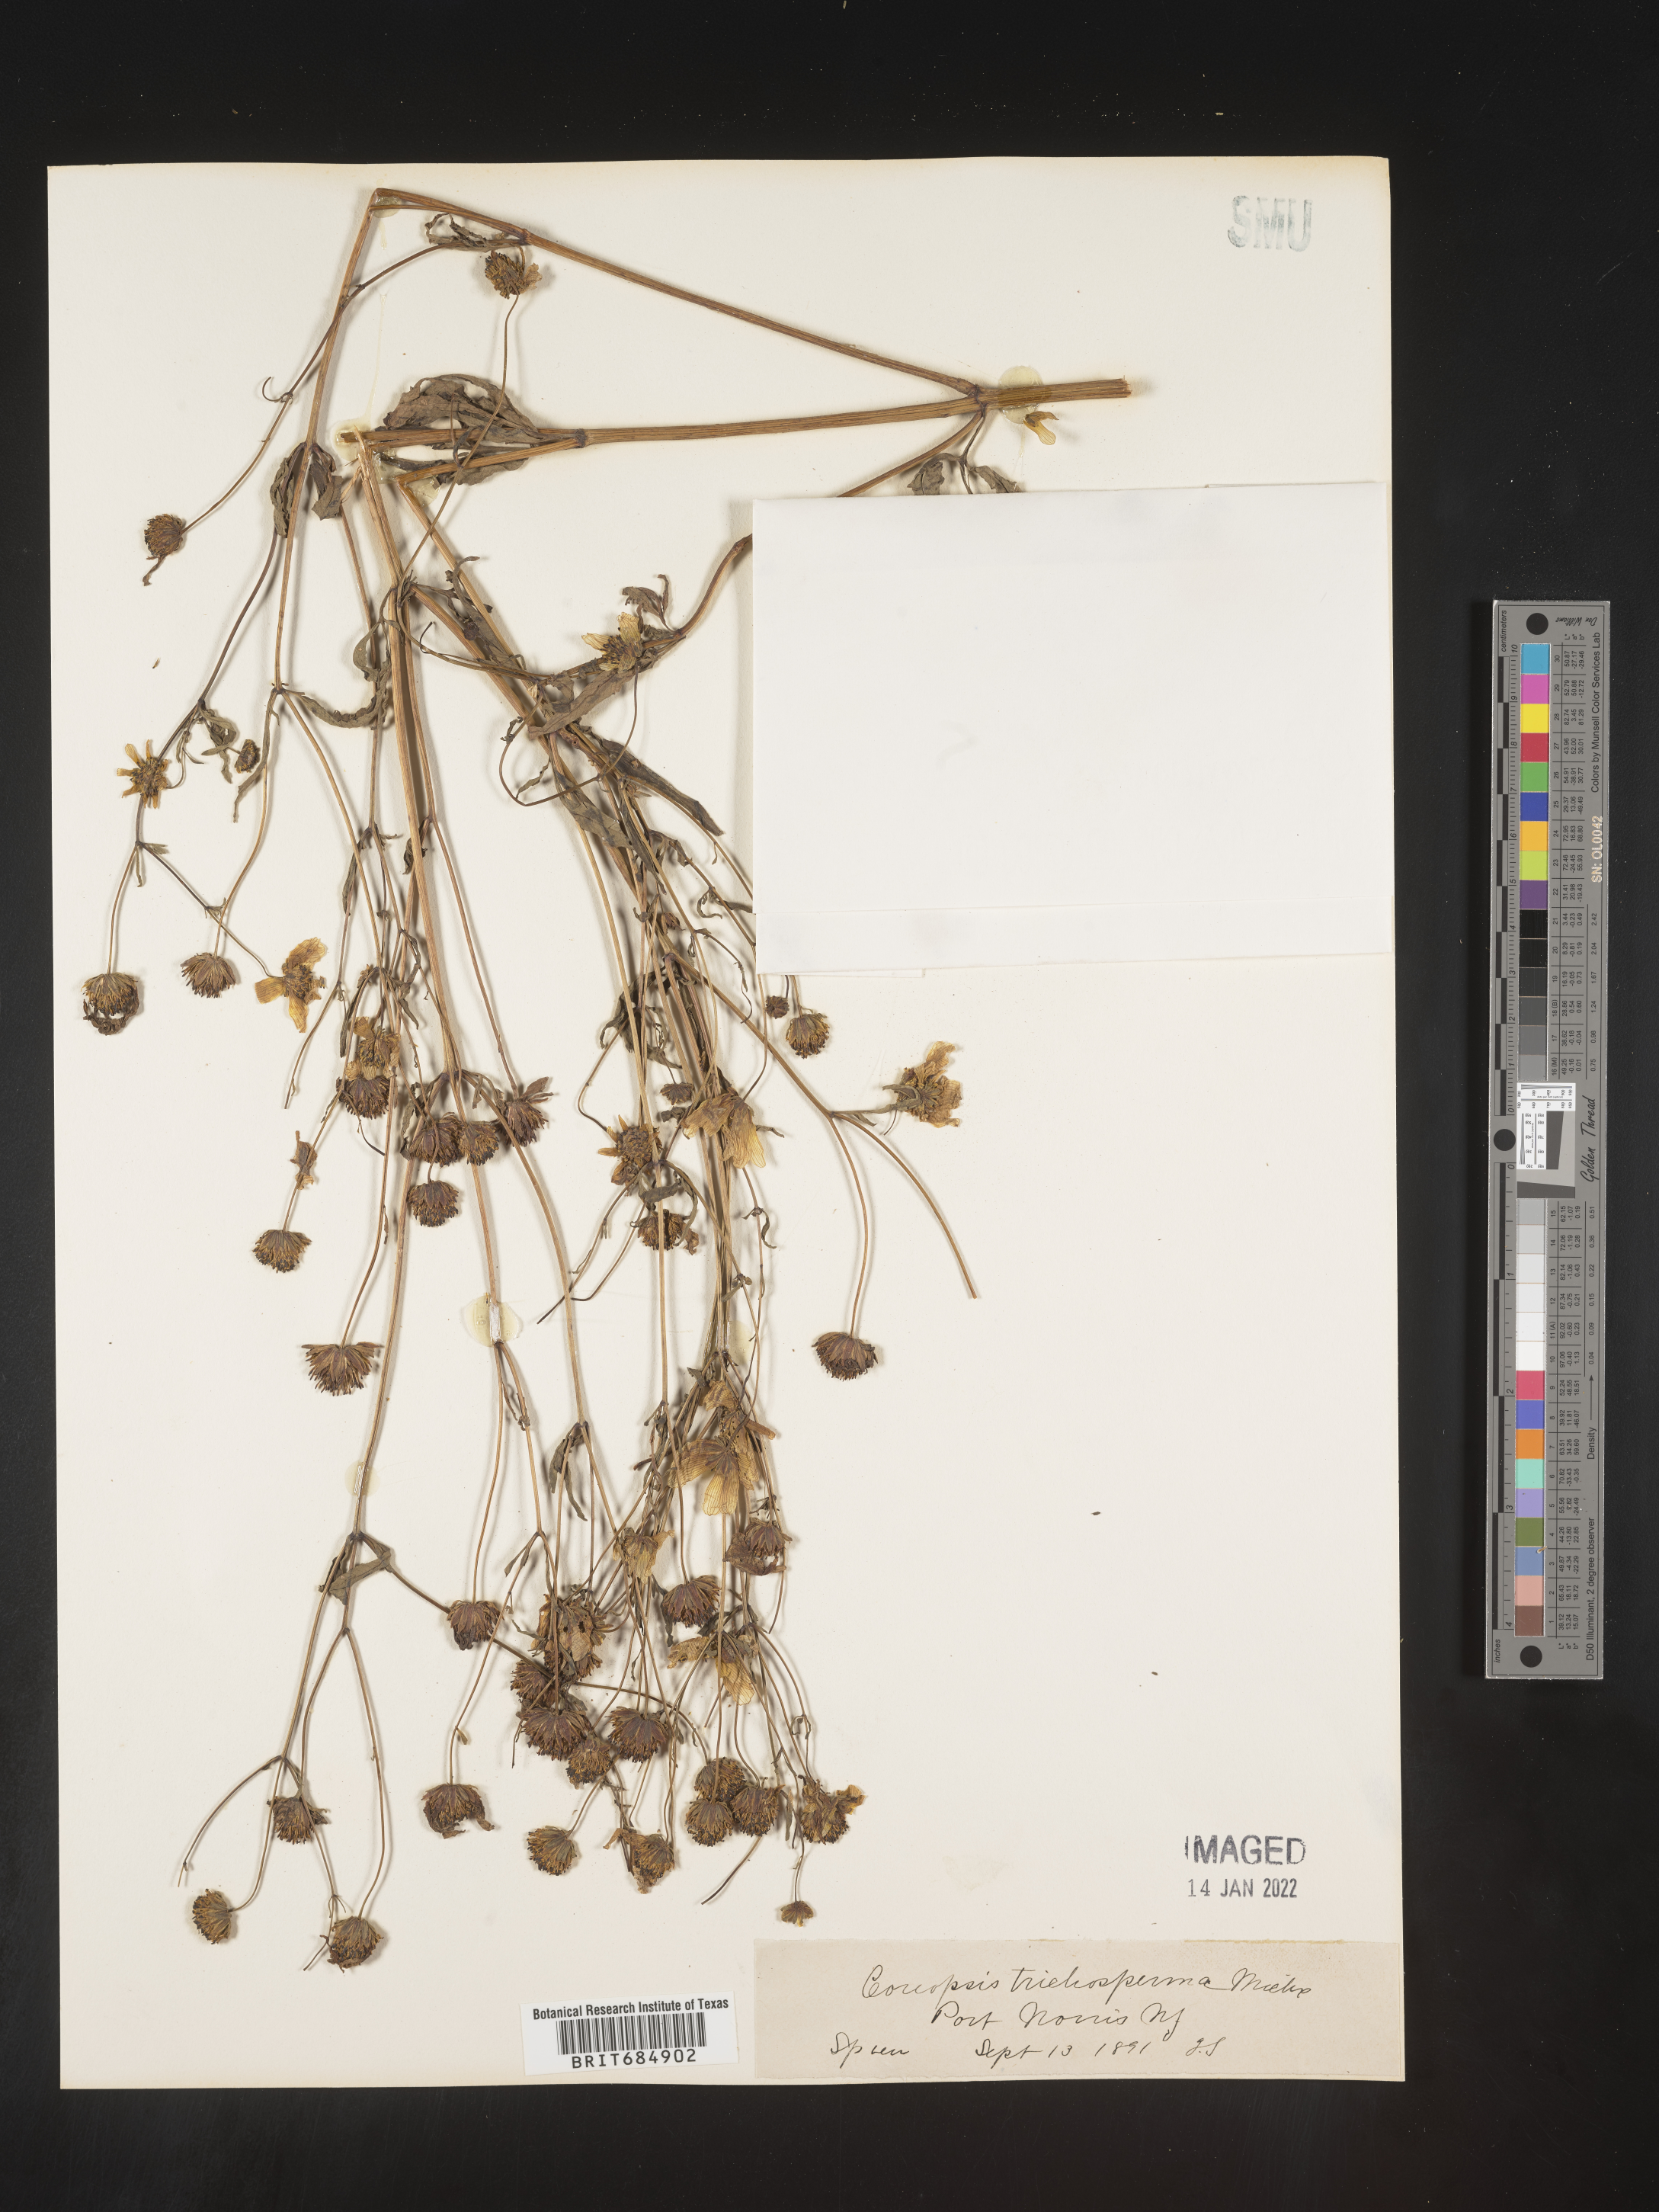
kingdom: Plantae
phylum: Tracheophyta
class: Magnoliopsida
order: Asterales
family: Asteraceae
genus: Bidens
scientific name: Bidens trichosperma
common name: Crowned beggarticks
